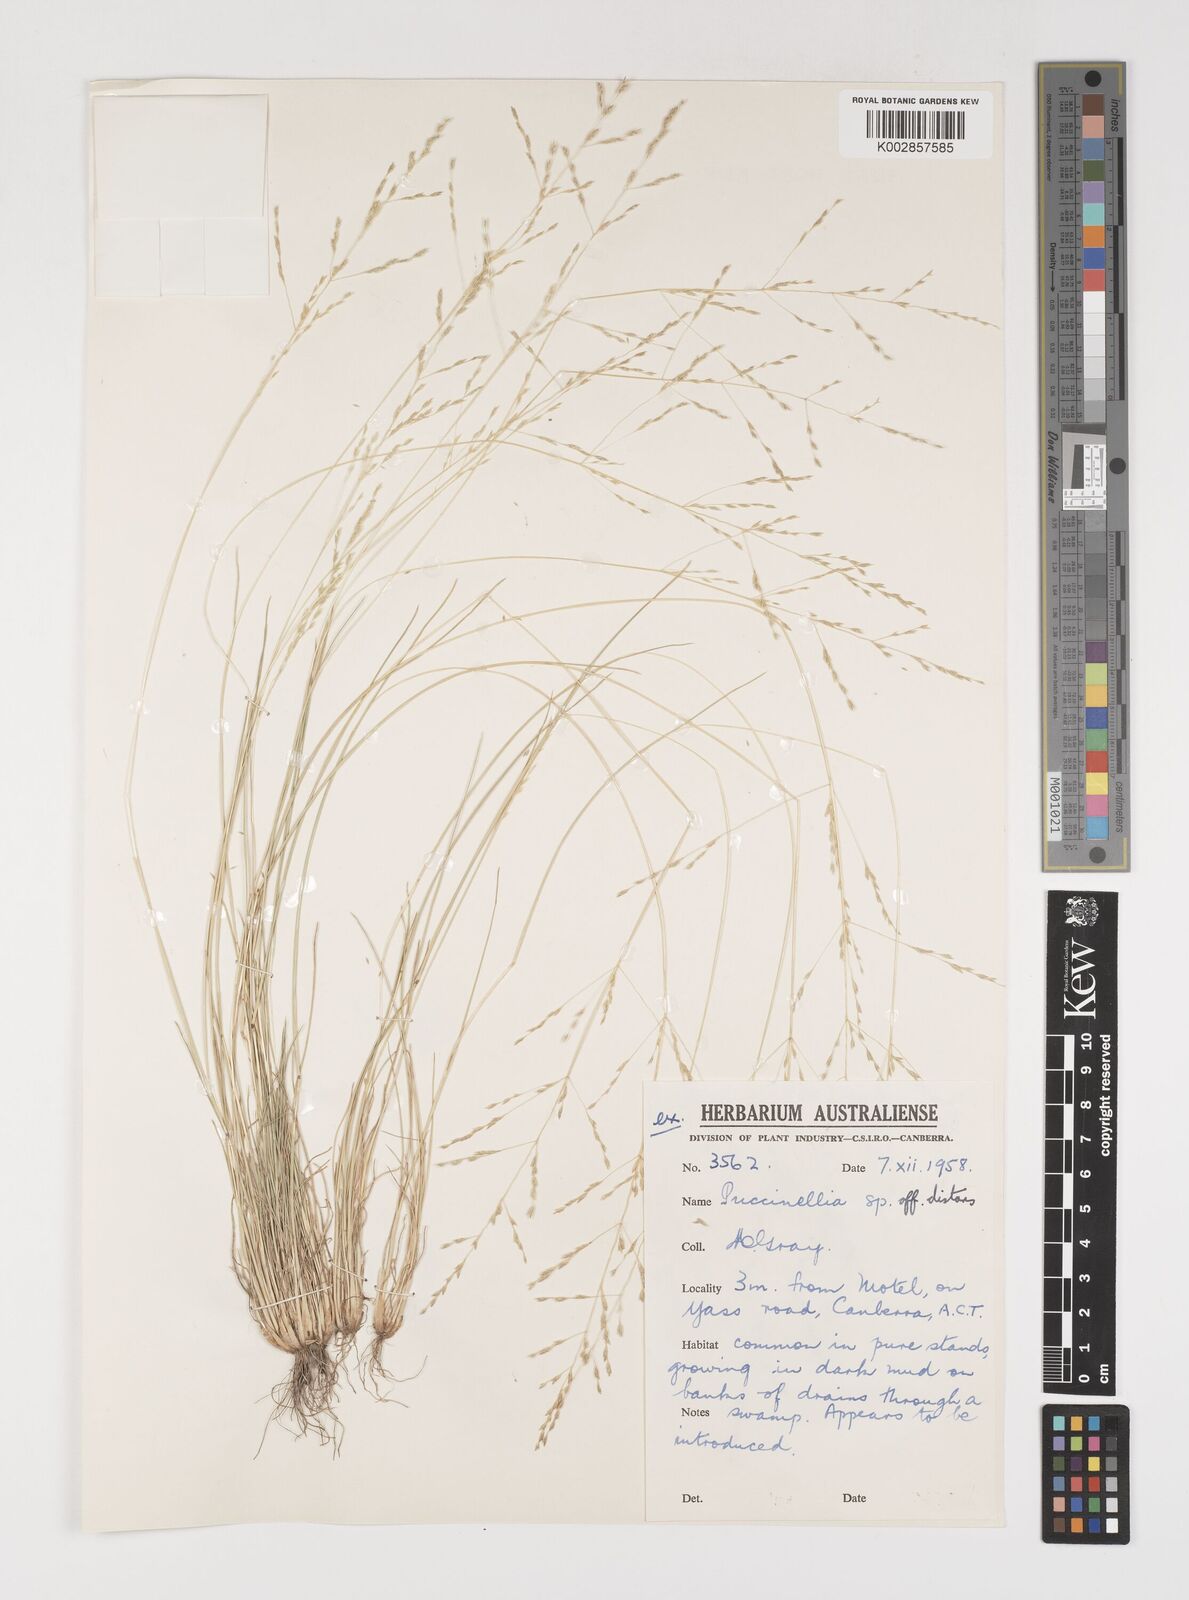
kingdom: Plantae
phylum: Tracheophyta
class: Liliopsida
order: Poales
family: Poaceae
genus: Puccinellia
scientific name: Puccinellia
